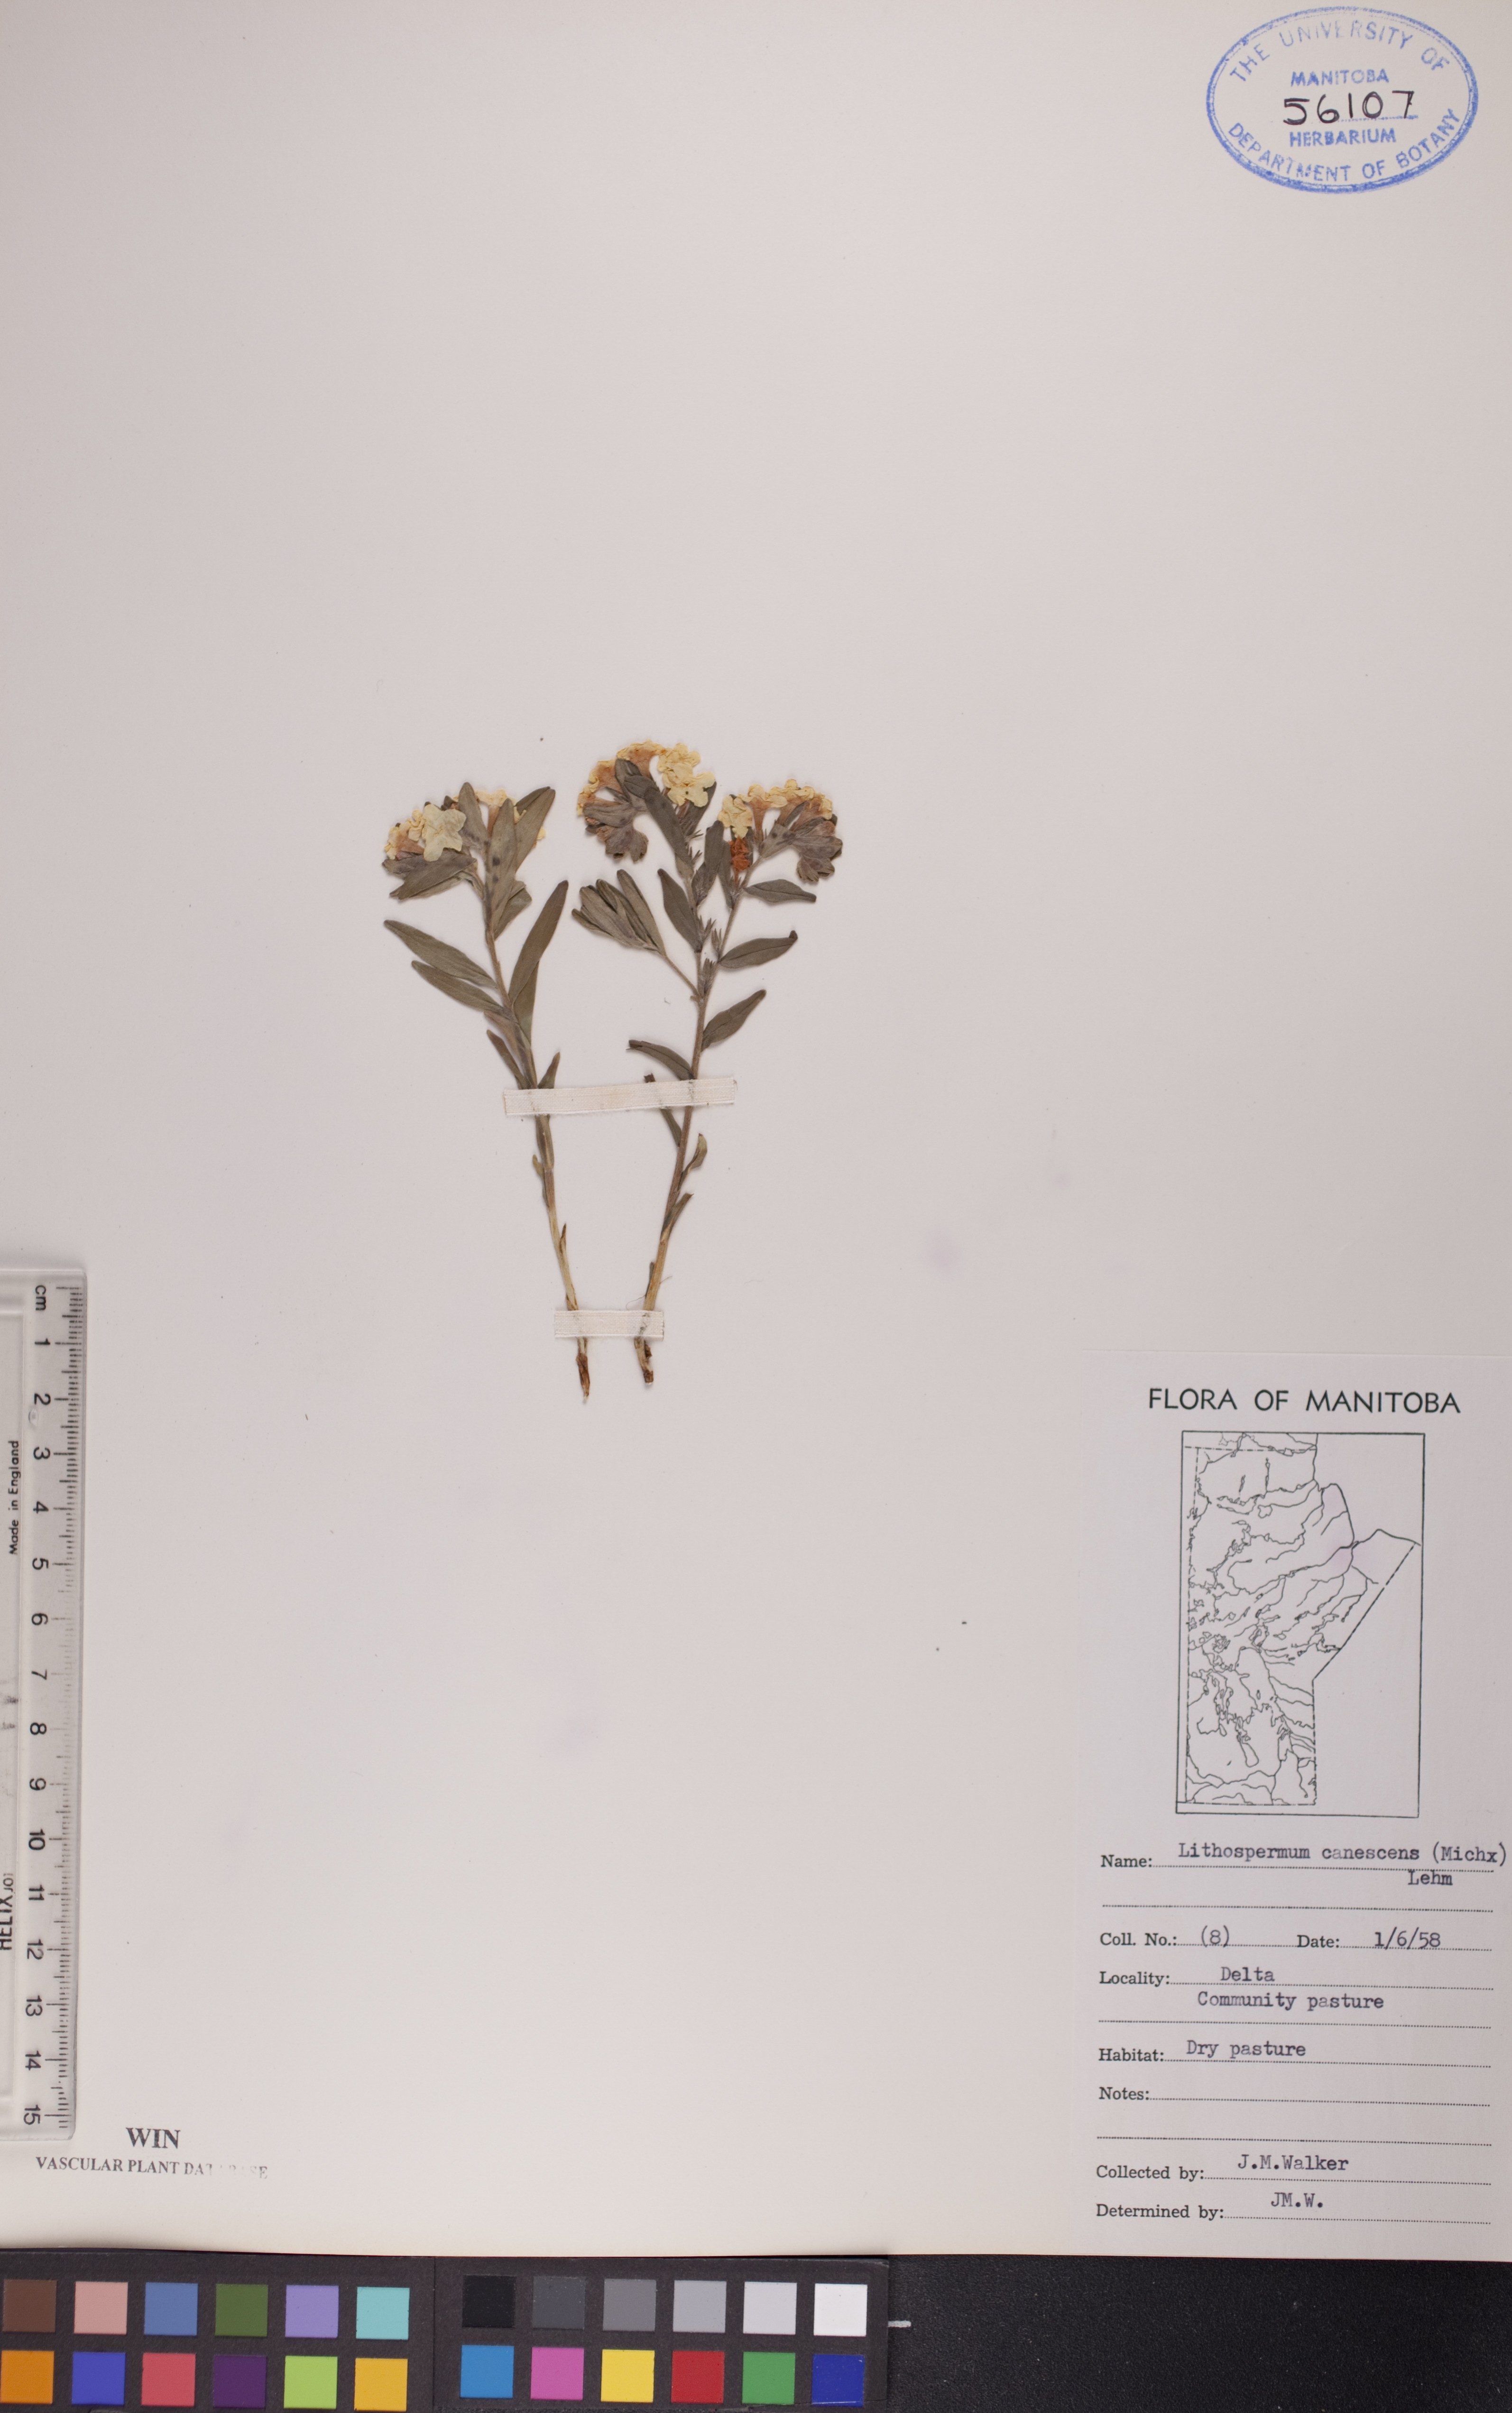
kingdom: Plantae
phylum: Tracheophyta
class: Magnoliopsida
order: Boraginales
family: Boraginaceae
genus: Lithospermum
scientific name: Lithospermum canescens
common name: Hoary puccoon
